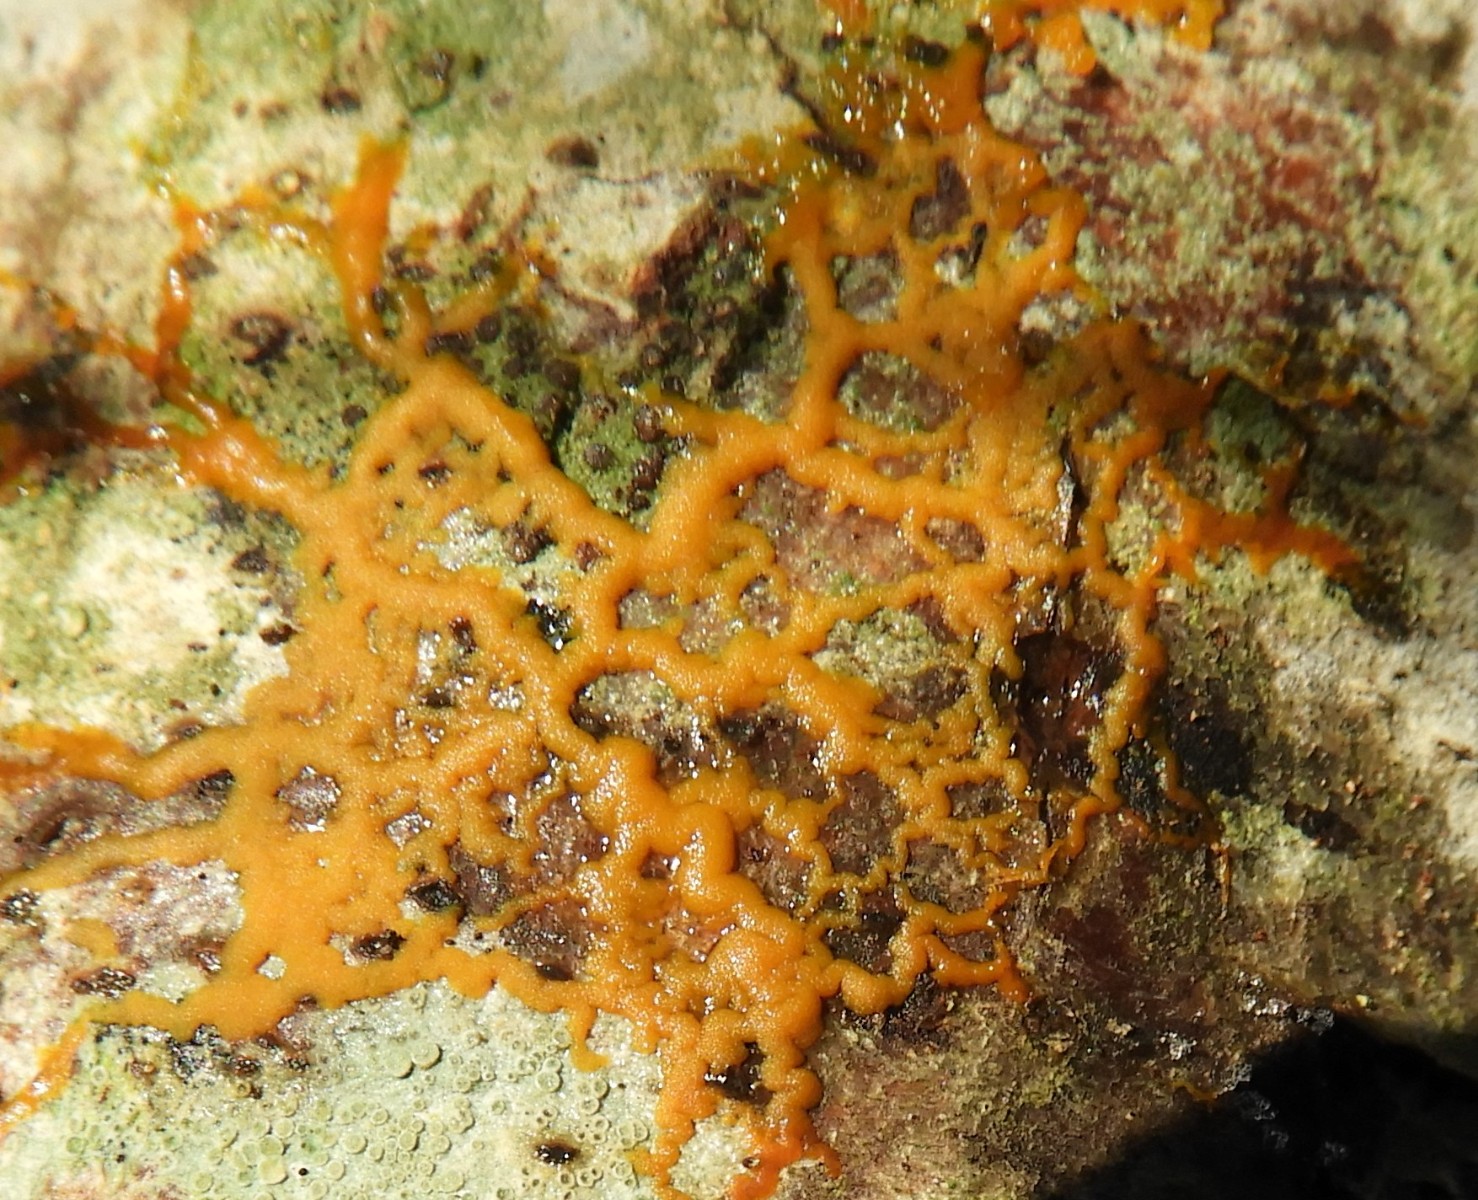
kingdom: Protozoa
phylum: Mycetozoa
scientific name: Mycetozoa
